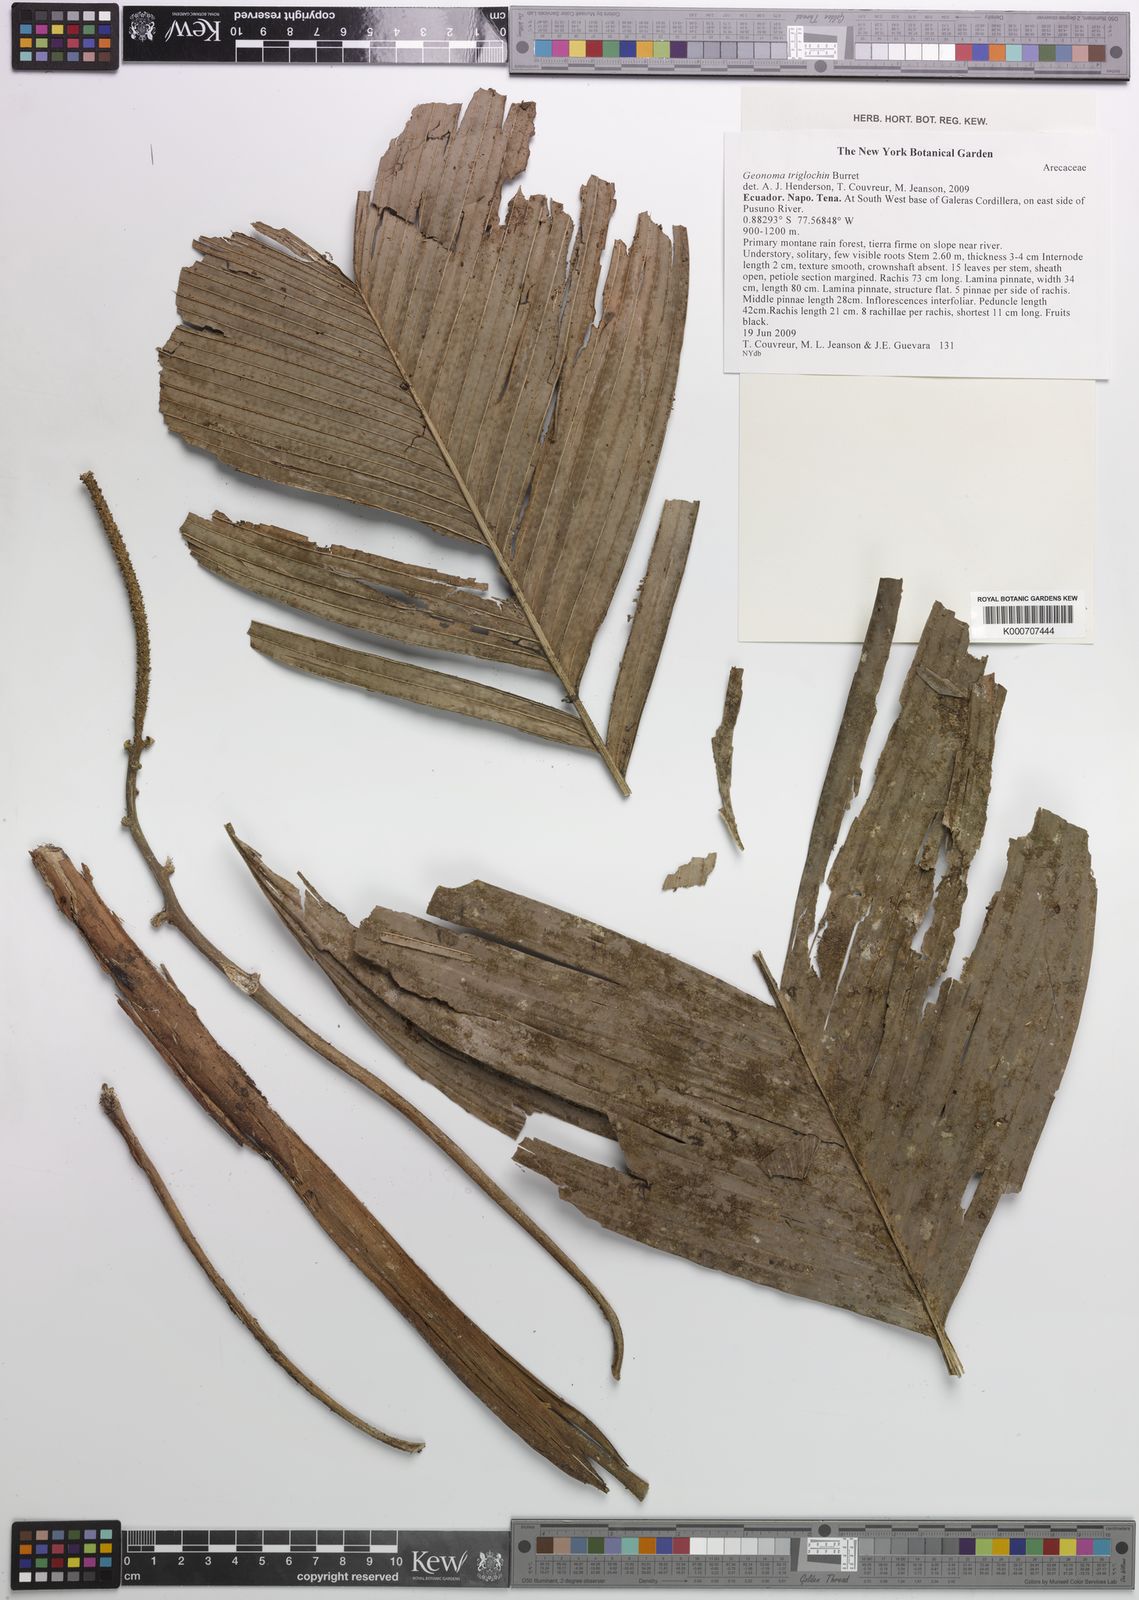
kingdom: Plantae
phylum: Tracheophyta
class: Liliopsida
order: Arecales
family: Arecaceae
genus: Geonoma
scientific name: Geonoma triglochin
